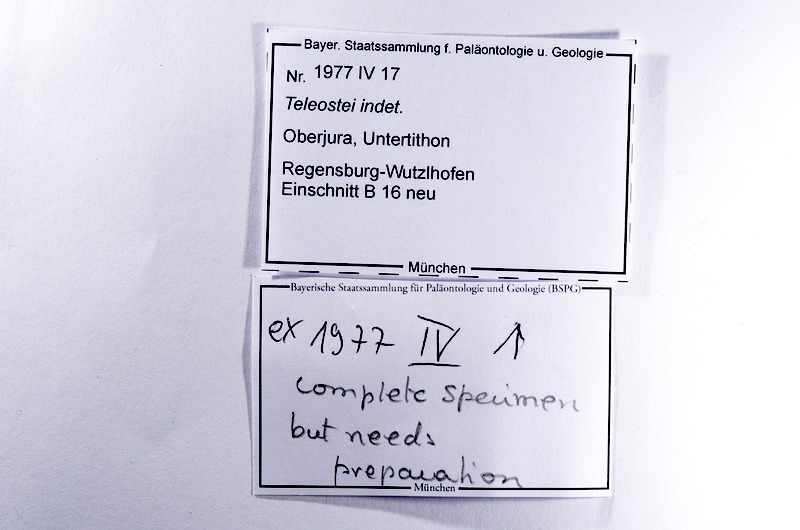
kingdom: Animalia
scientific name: Animalia
